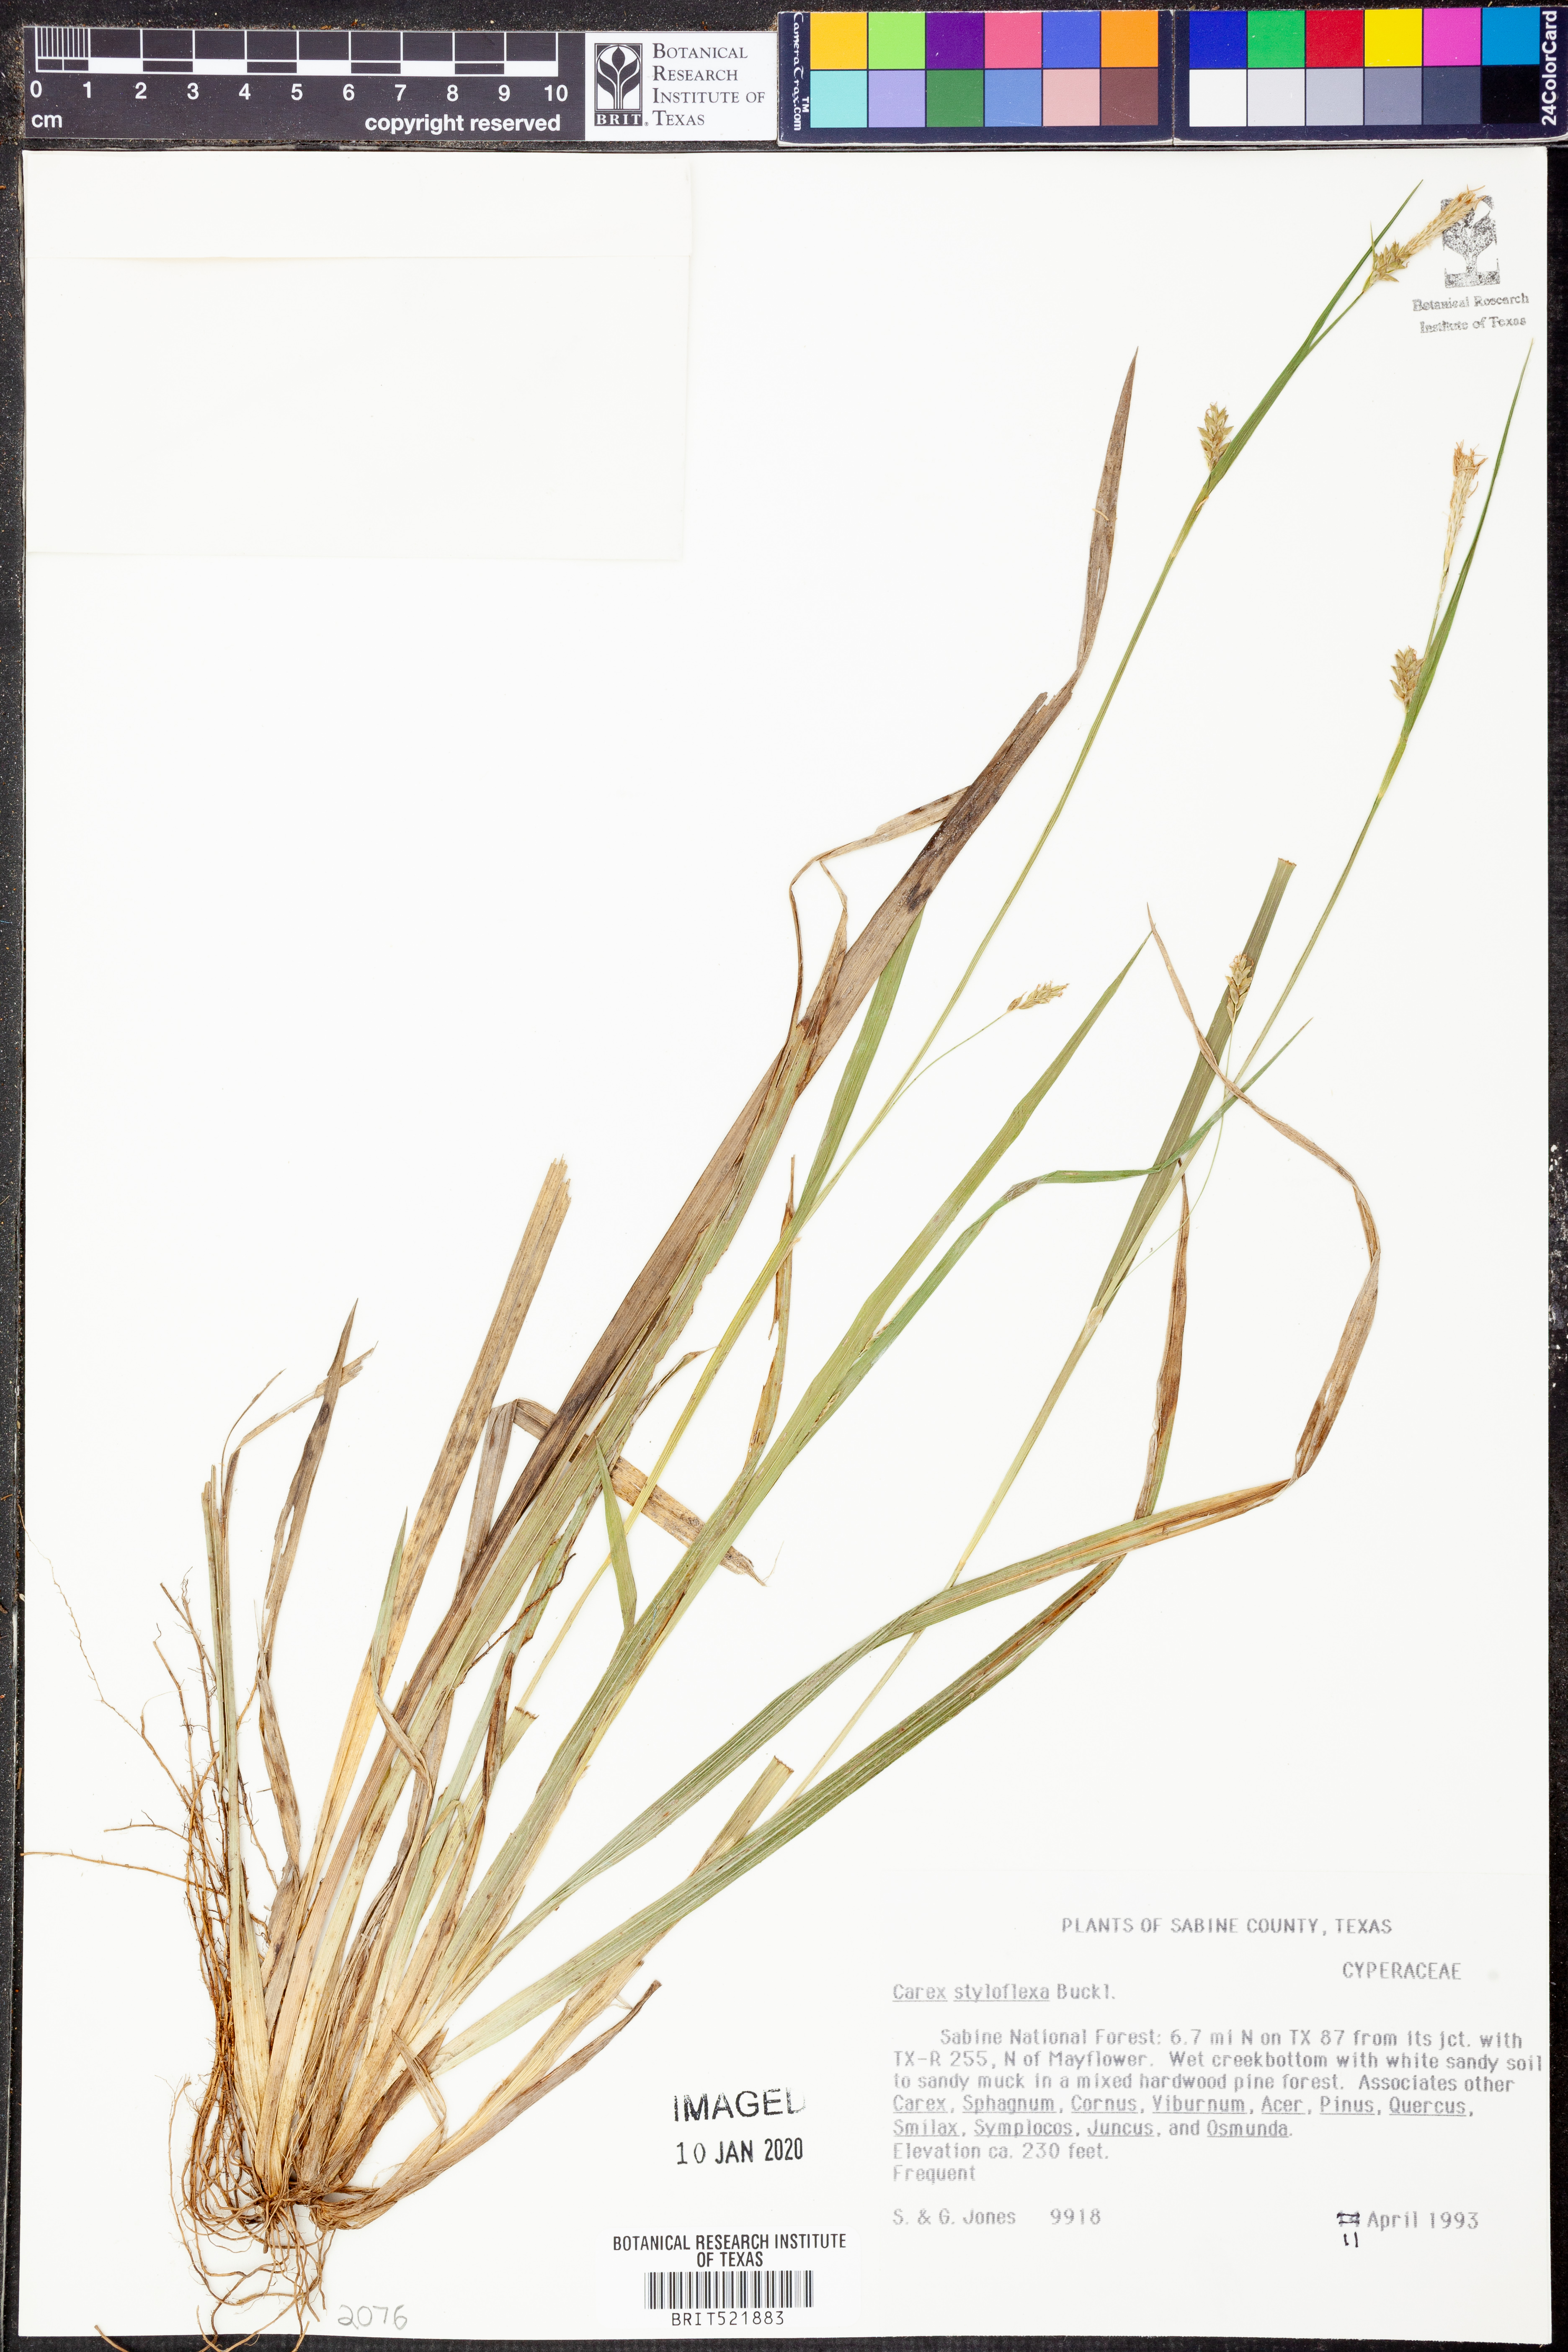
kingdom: Plantae
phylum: Tracheophyta
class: Liliopsida
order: Poales
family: Cyperaceae
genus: Carex
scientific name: Carex styloflexa
